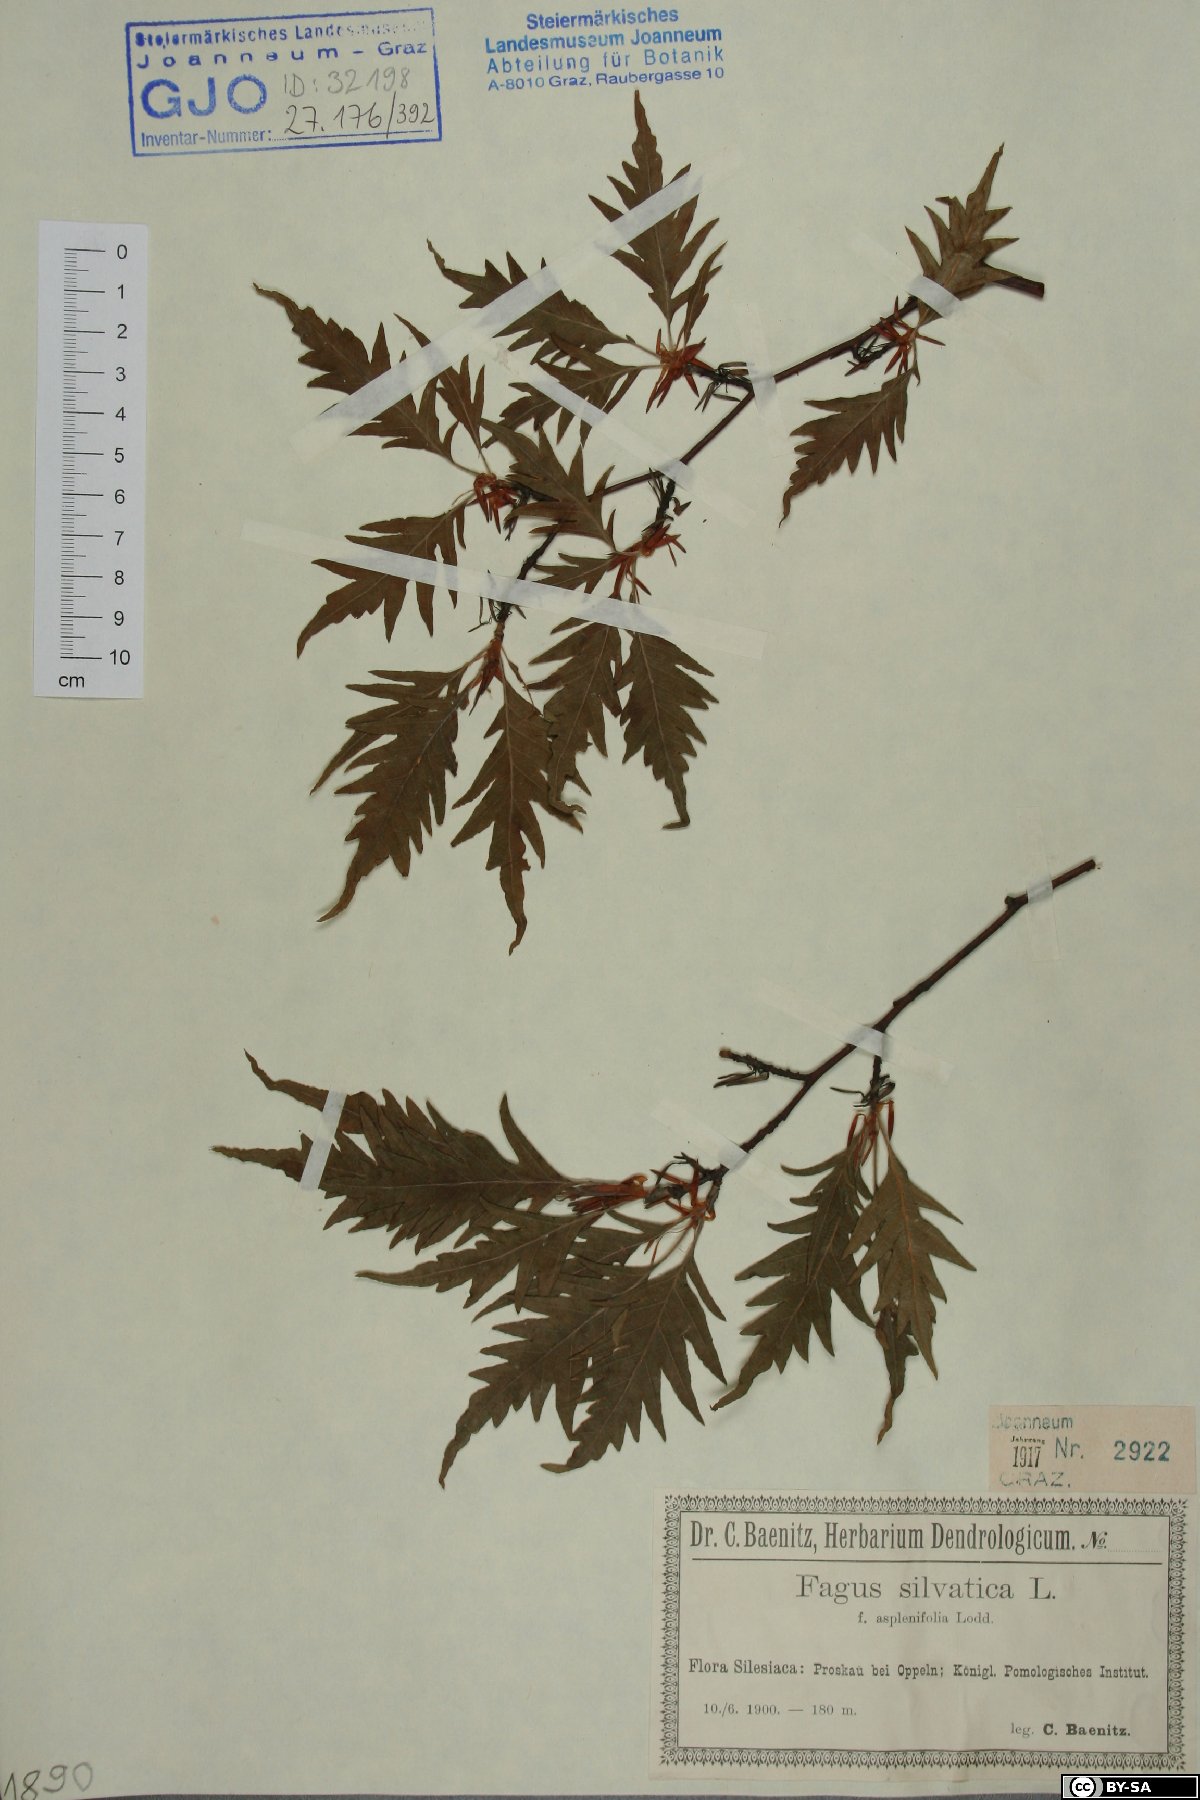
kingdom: Plantae
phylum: Tracheophyta
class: Magnoliopsida
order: Fagales
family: Fagaceae
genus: Fagus
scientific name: Fagus sylvatica
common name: Beech
